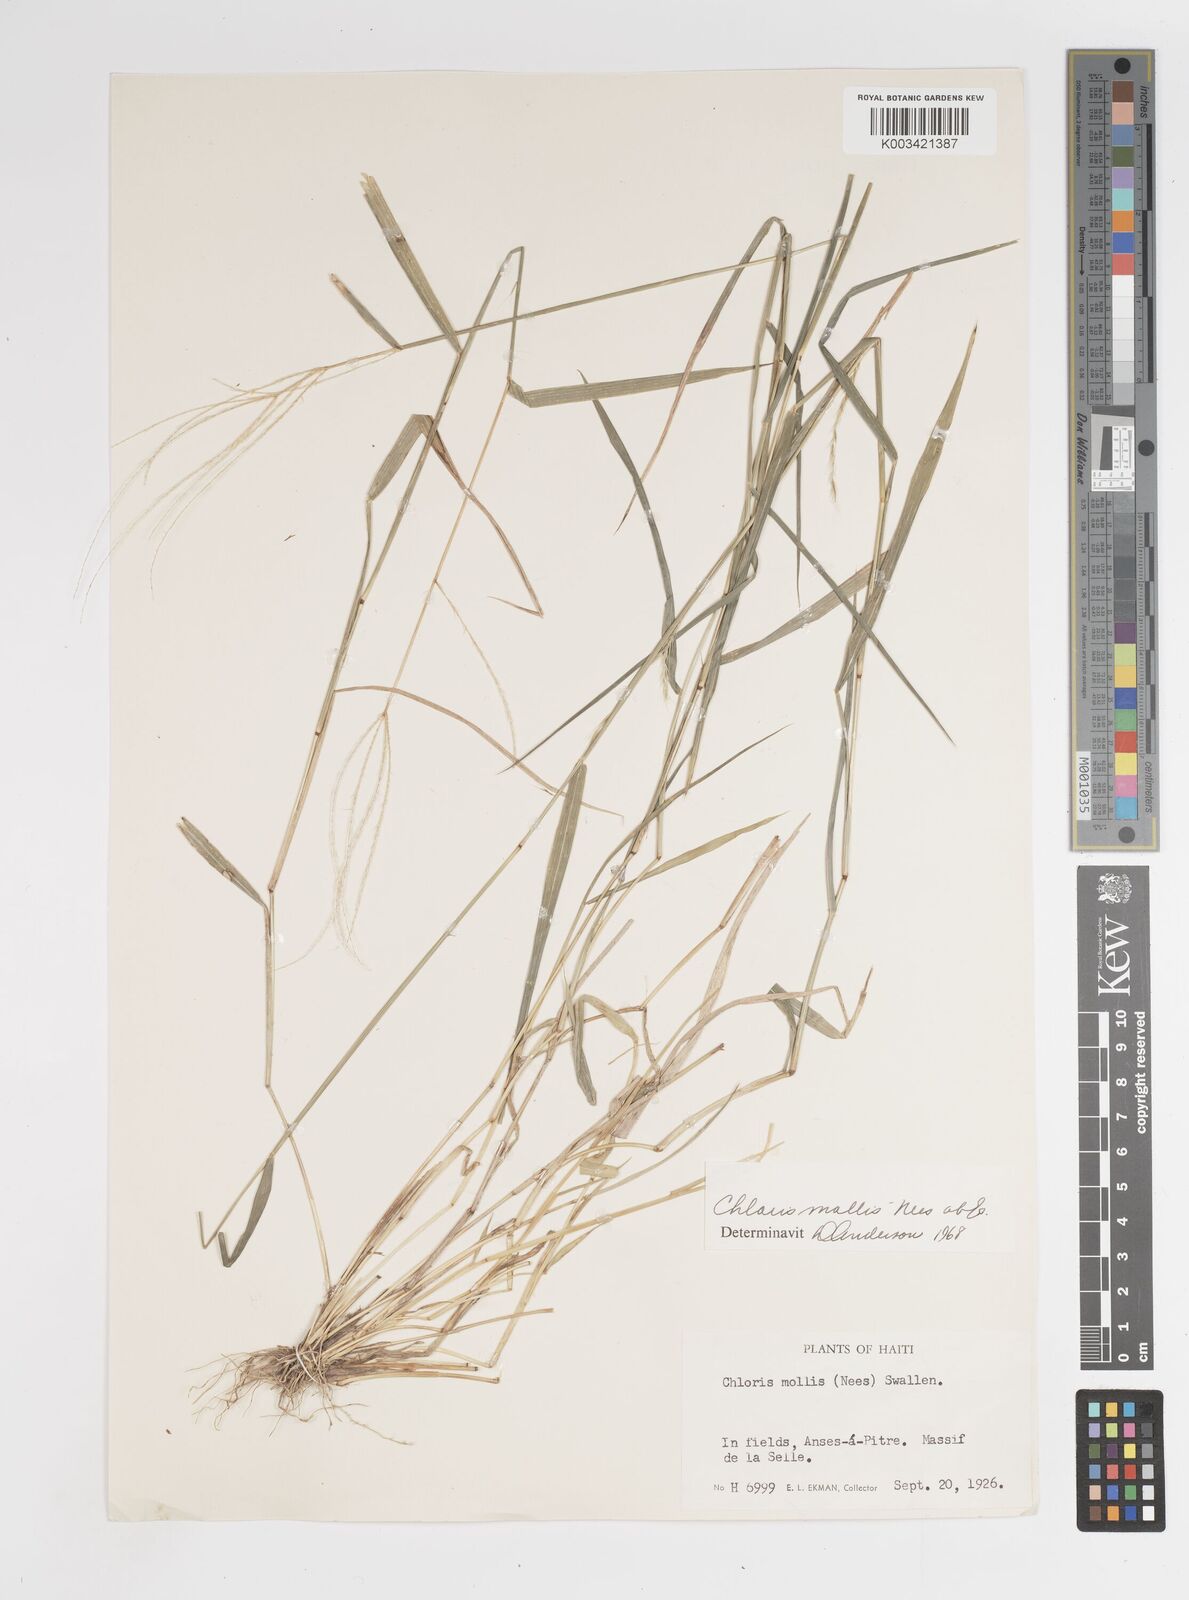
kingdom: Plantae
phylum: Tracheophyta
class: Liliopsida
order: Poales
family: Poaceae
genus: Leptochloa
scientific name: Leptochloa anisopoda
